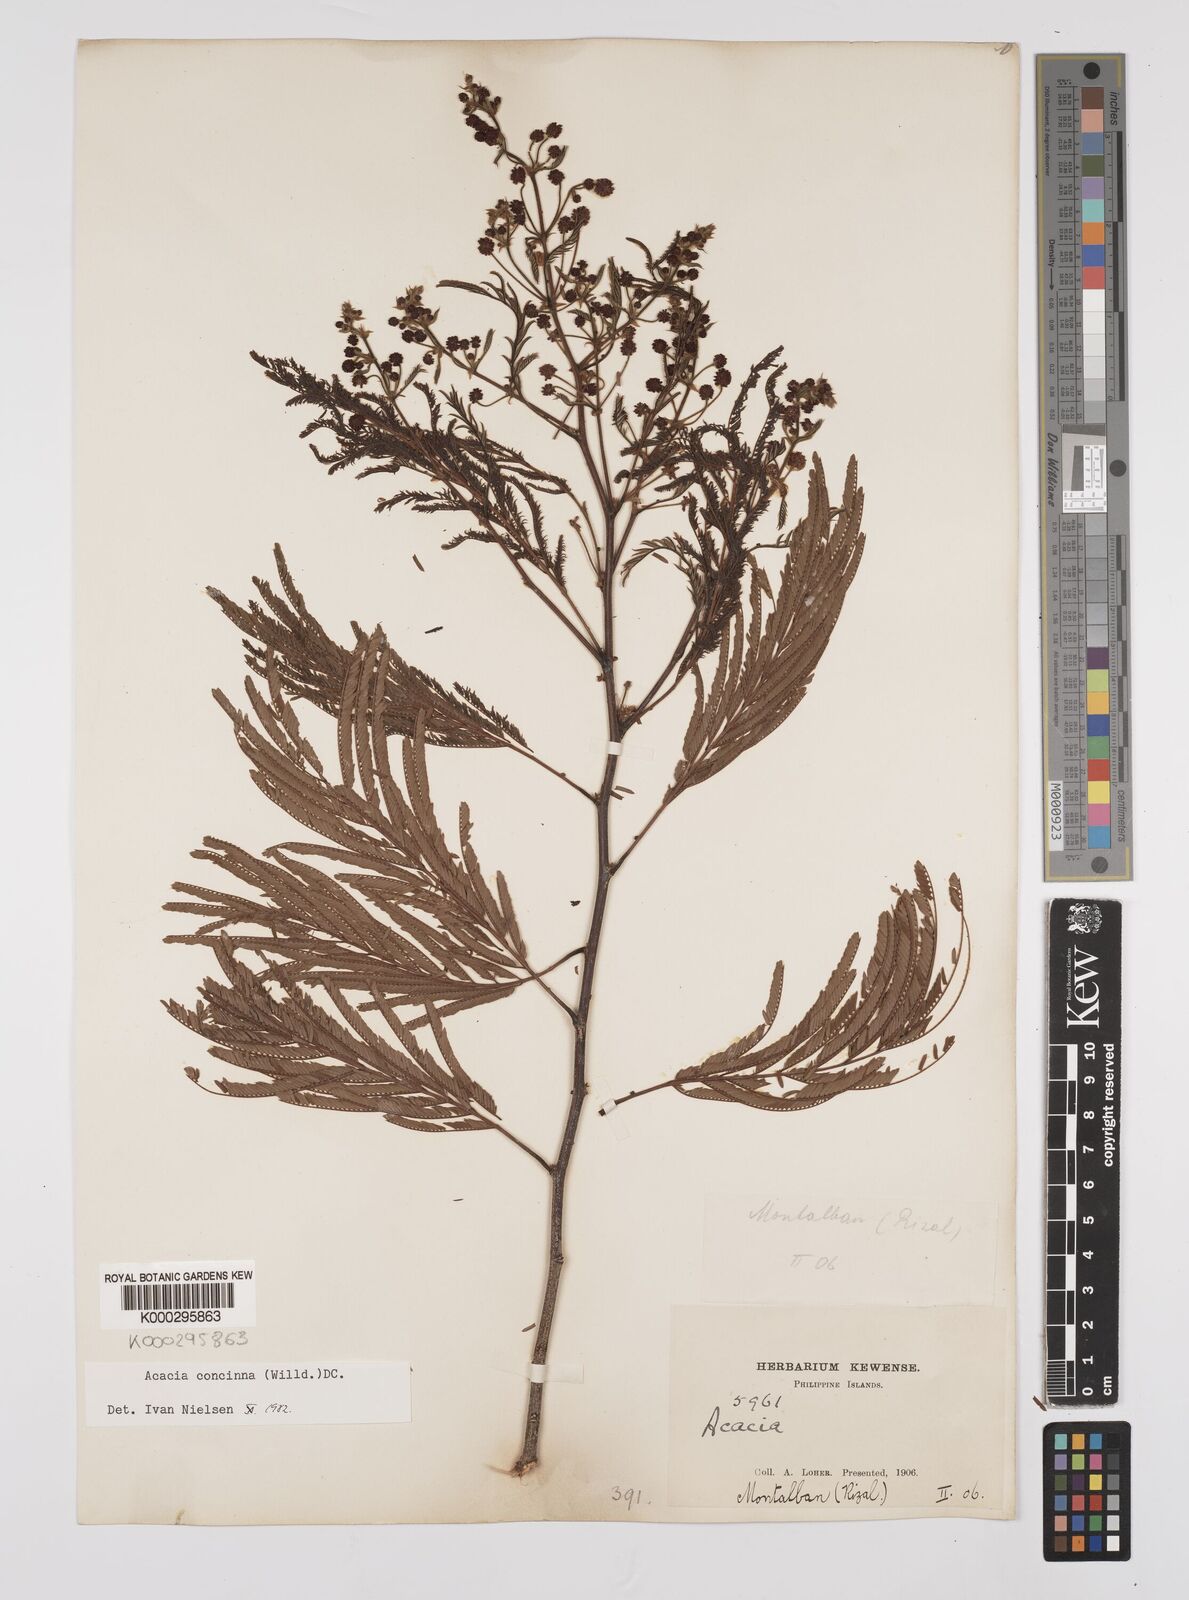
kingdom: Plantae
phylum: Tracheophyta
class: Magnoliopsida
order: Fabales
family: Fabaceae
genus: Senegalia
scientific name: Senegalia rugata
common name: Soap-pod
